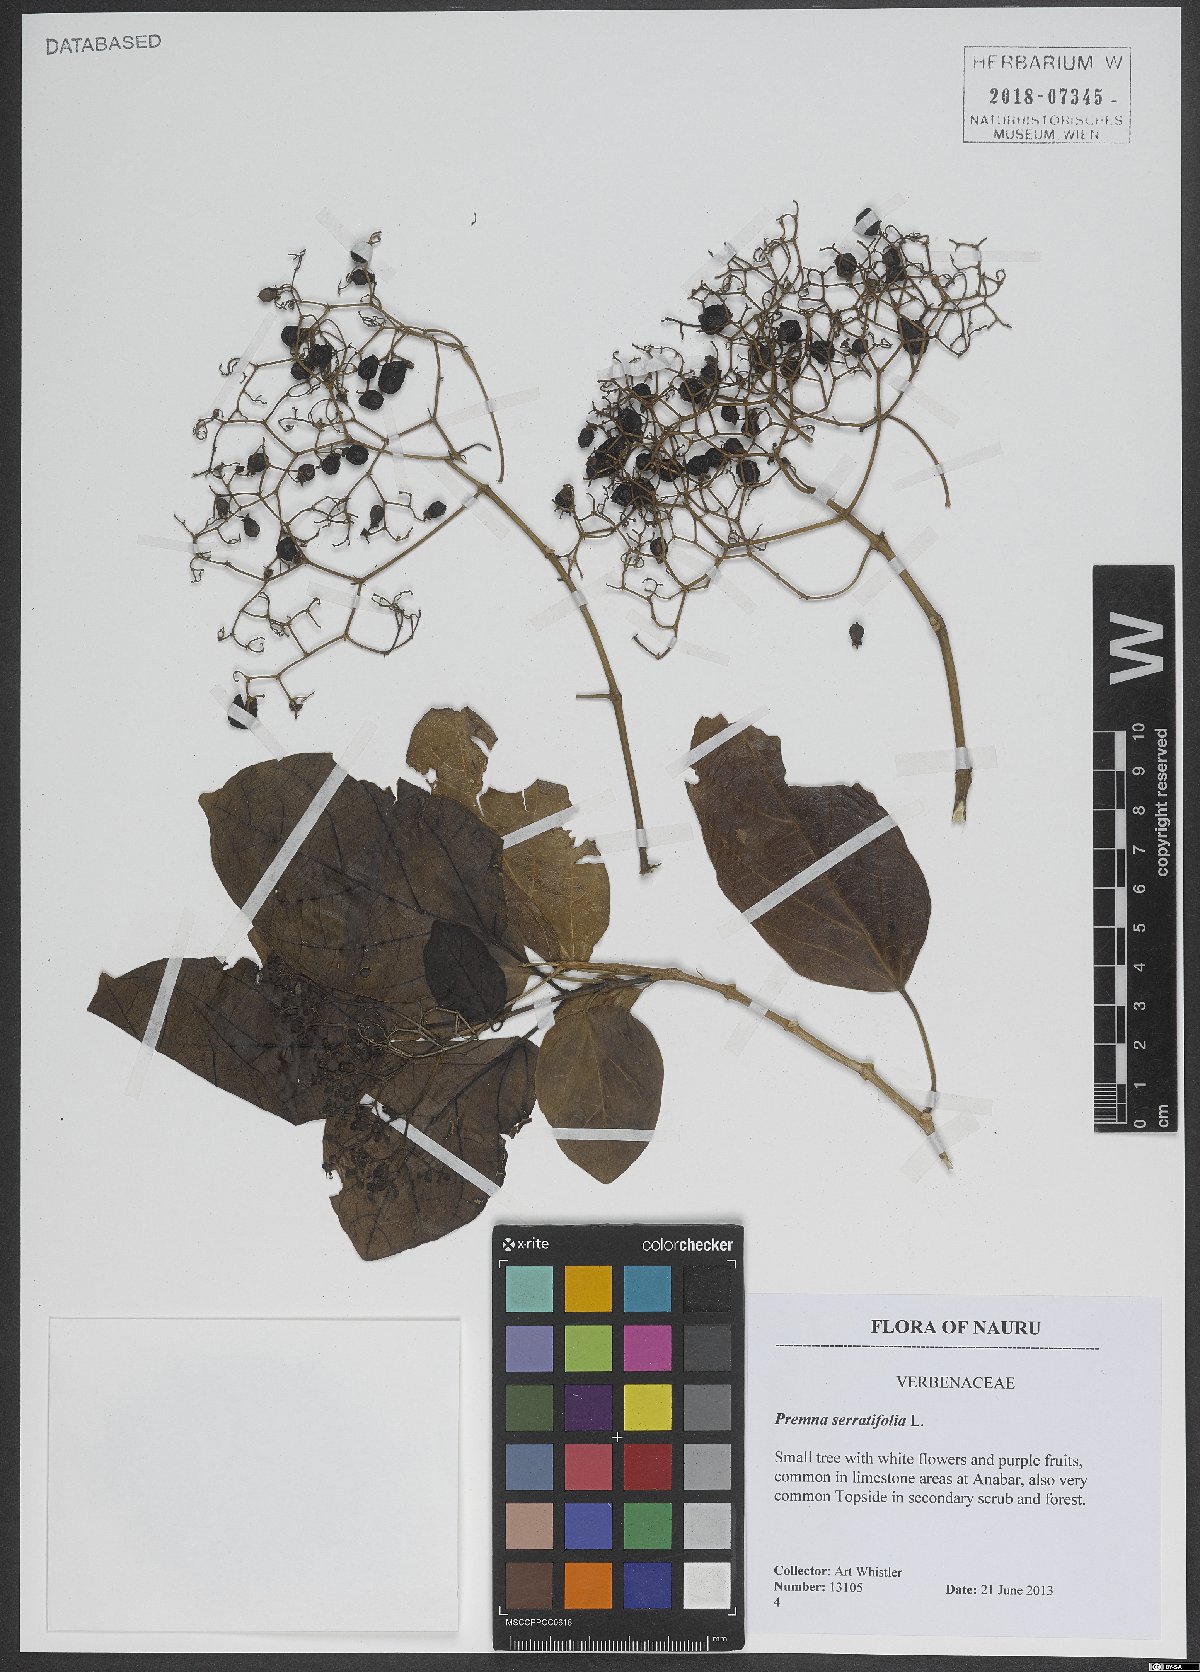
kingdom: Plantae
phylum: Tracheophyta
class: Magnoliopsida
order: Lamiales
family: Lamiaceae
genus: Premna
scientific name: Premna serratifolia
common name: Bastard guelder
